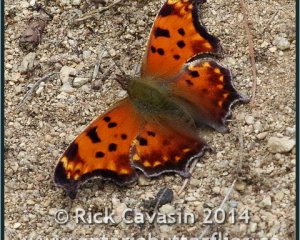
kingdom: Animalia
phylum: Arthropoda
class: Insecta
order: Lepidoptera
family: Nymphalidae
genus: Polygonia
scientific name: Polygonia comma
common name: Eastern Comma
